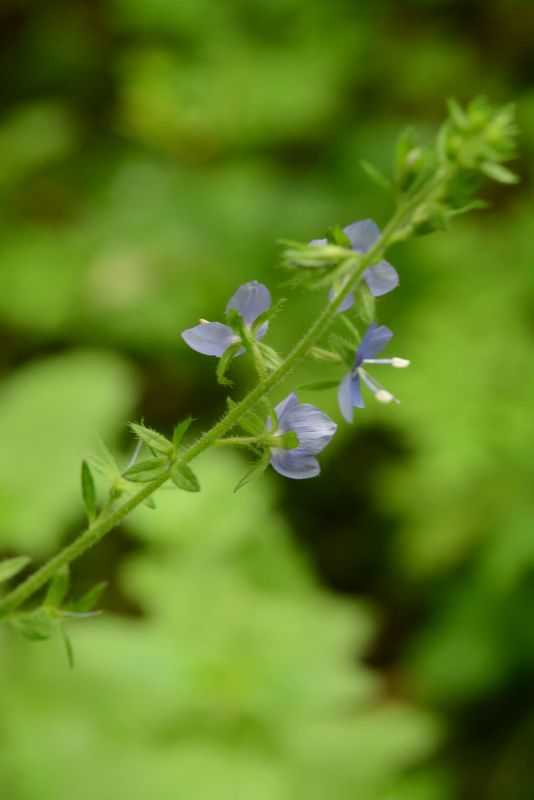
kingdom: Plantae
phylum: Tracheophyta
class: Magnoliopsida
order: Lamiales
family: Plantaginaceae
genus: Veronica
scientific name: Veronica magna
